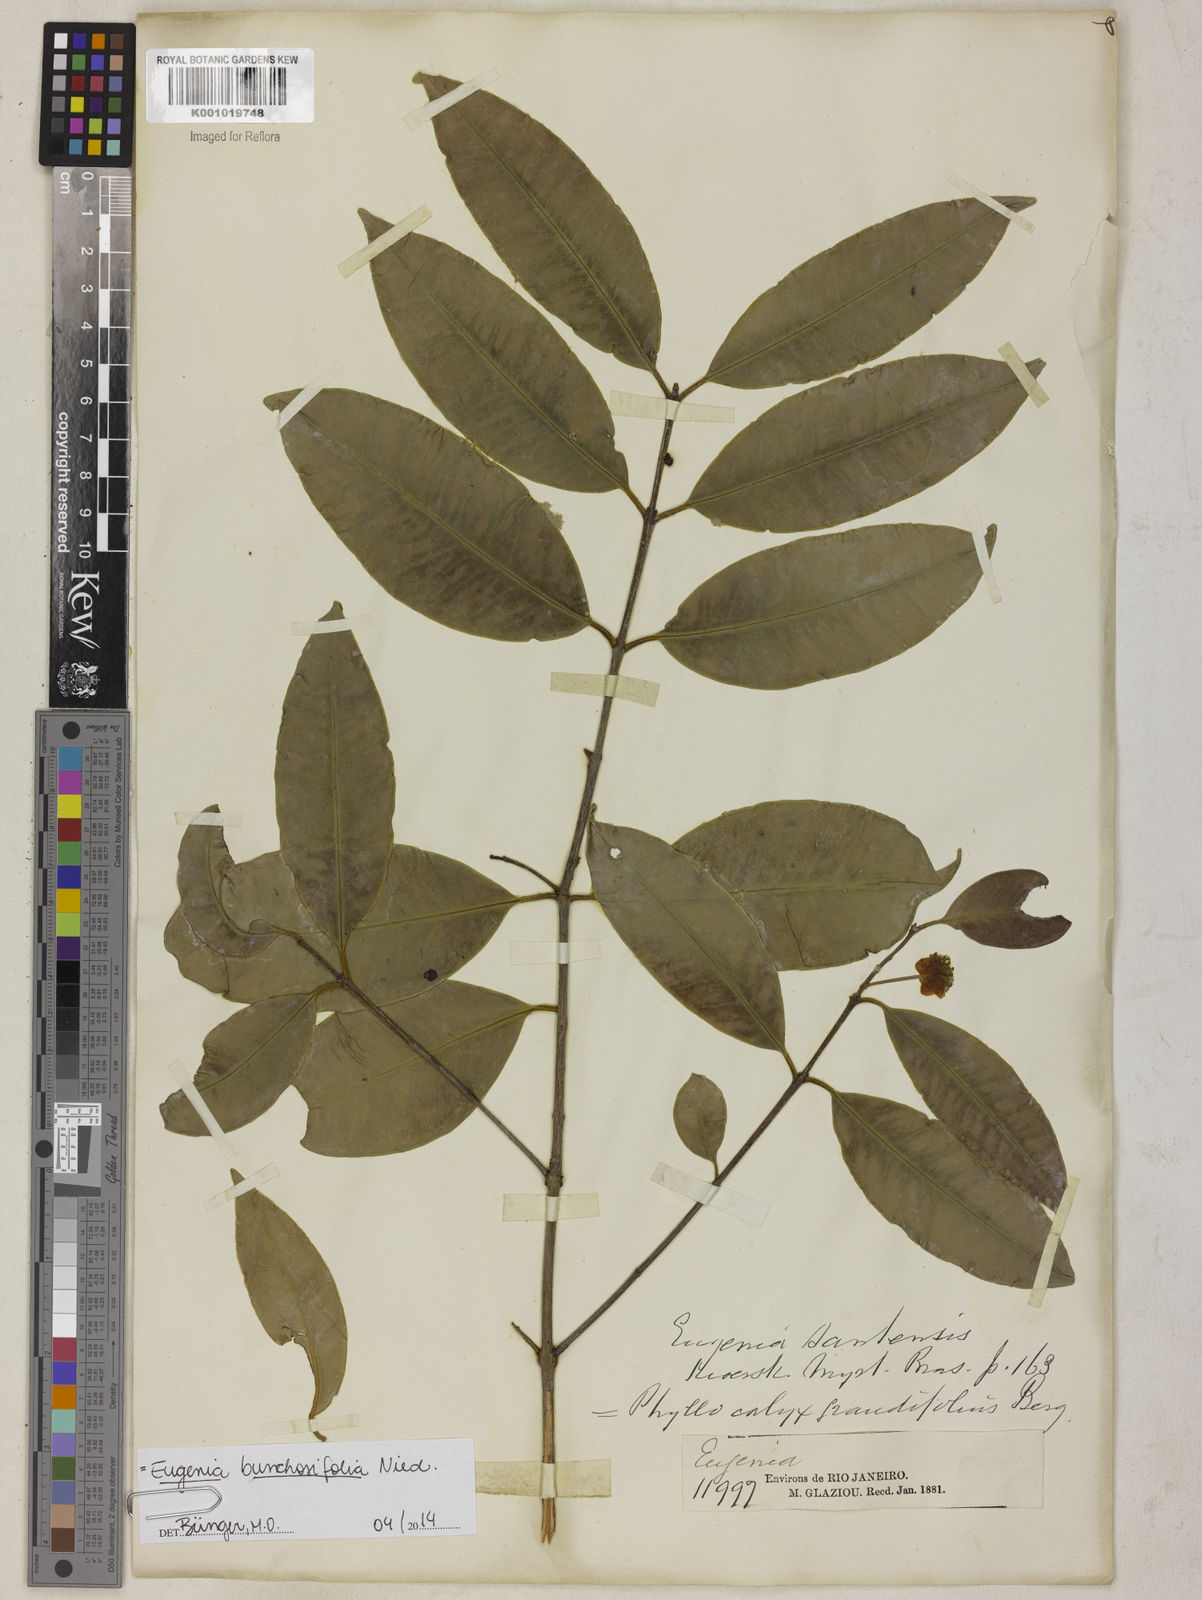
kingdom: Plantae
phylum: Tracheophyta
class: Magnoliopsida
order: Myrtales
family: Myrtaceae
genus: Eugenia
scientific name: Eugenia bunchosiifolia
